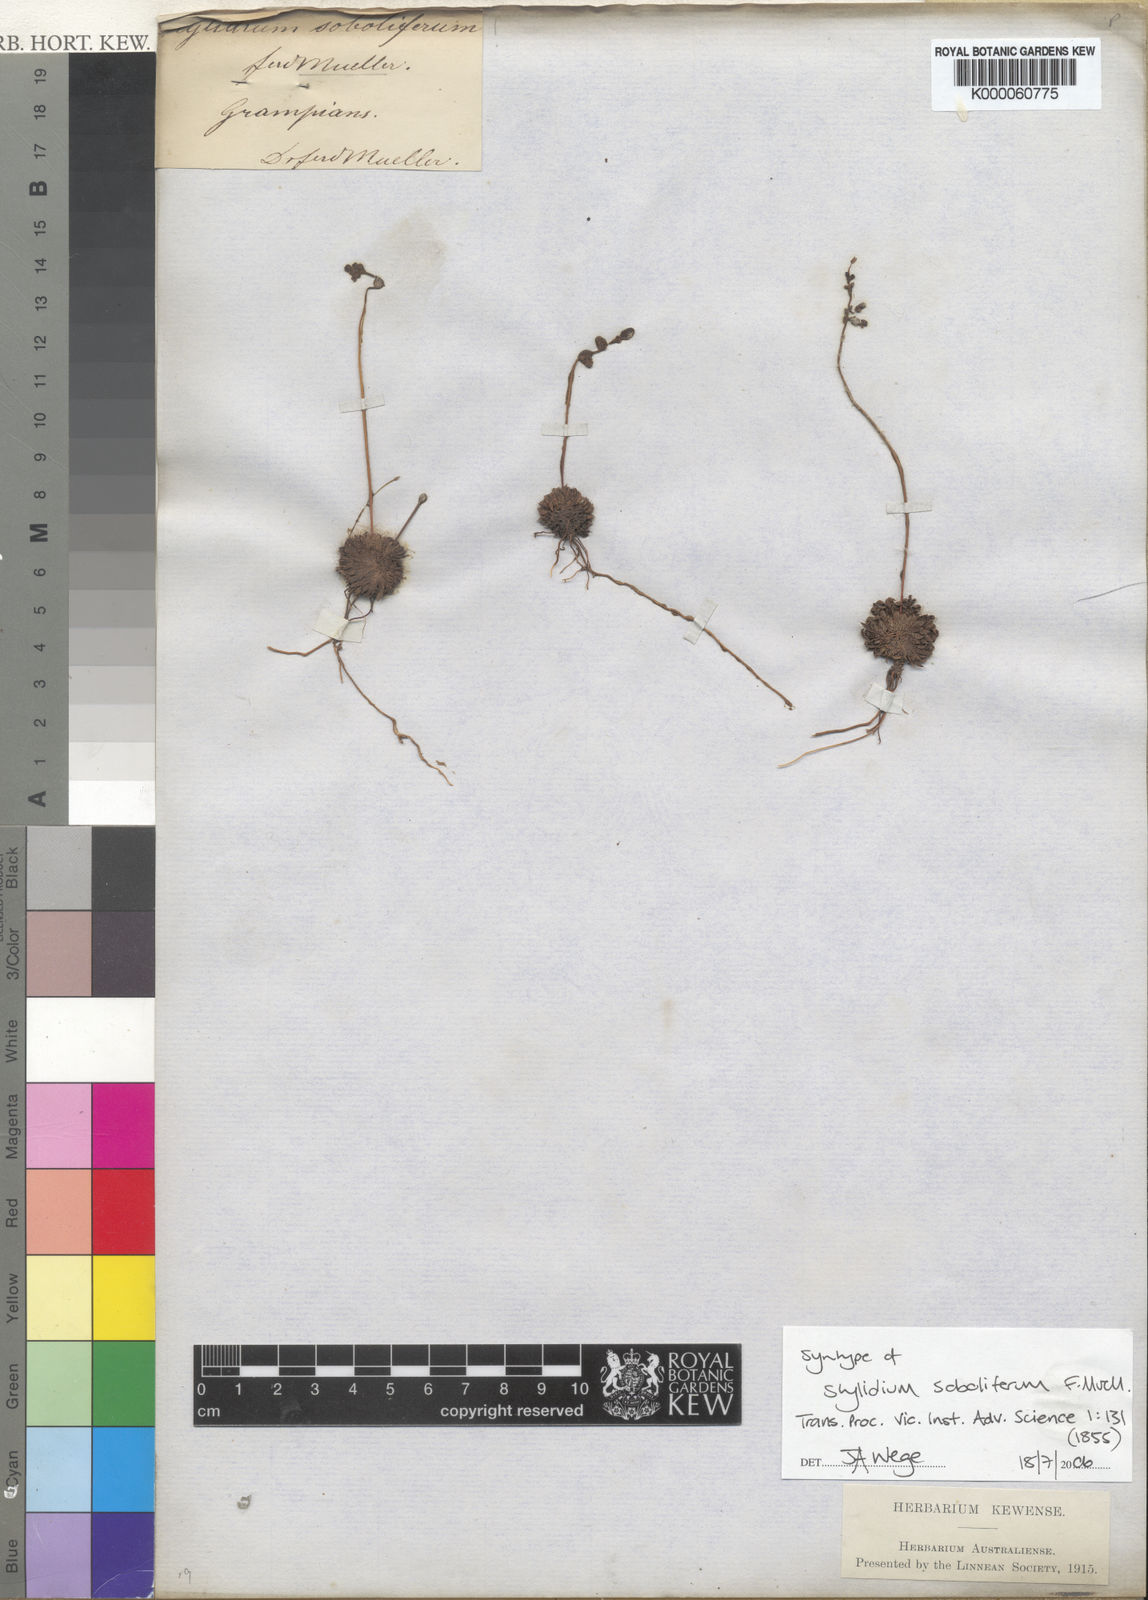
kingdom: Plantae
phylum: Tracheophyta
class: Magnoliopsida
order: Asterales
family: Stylidiaceae
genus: Stylidium
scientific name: Stylidium soboliferum
